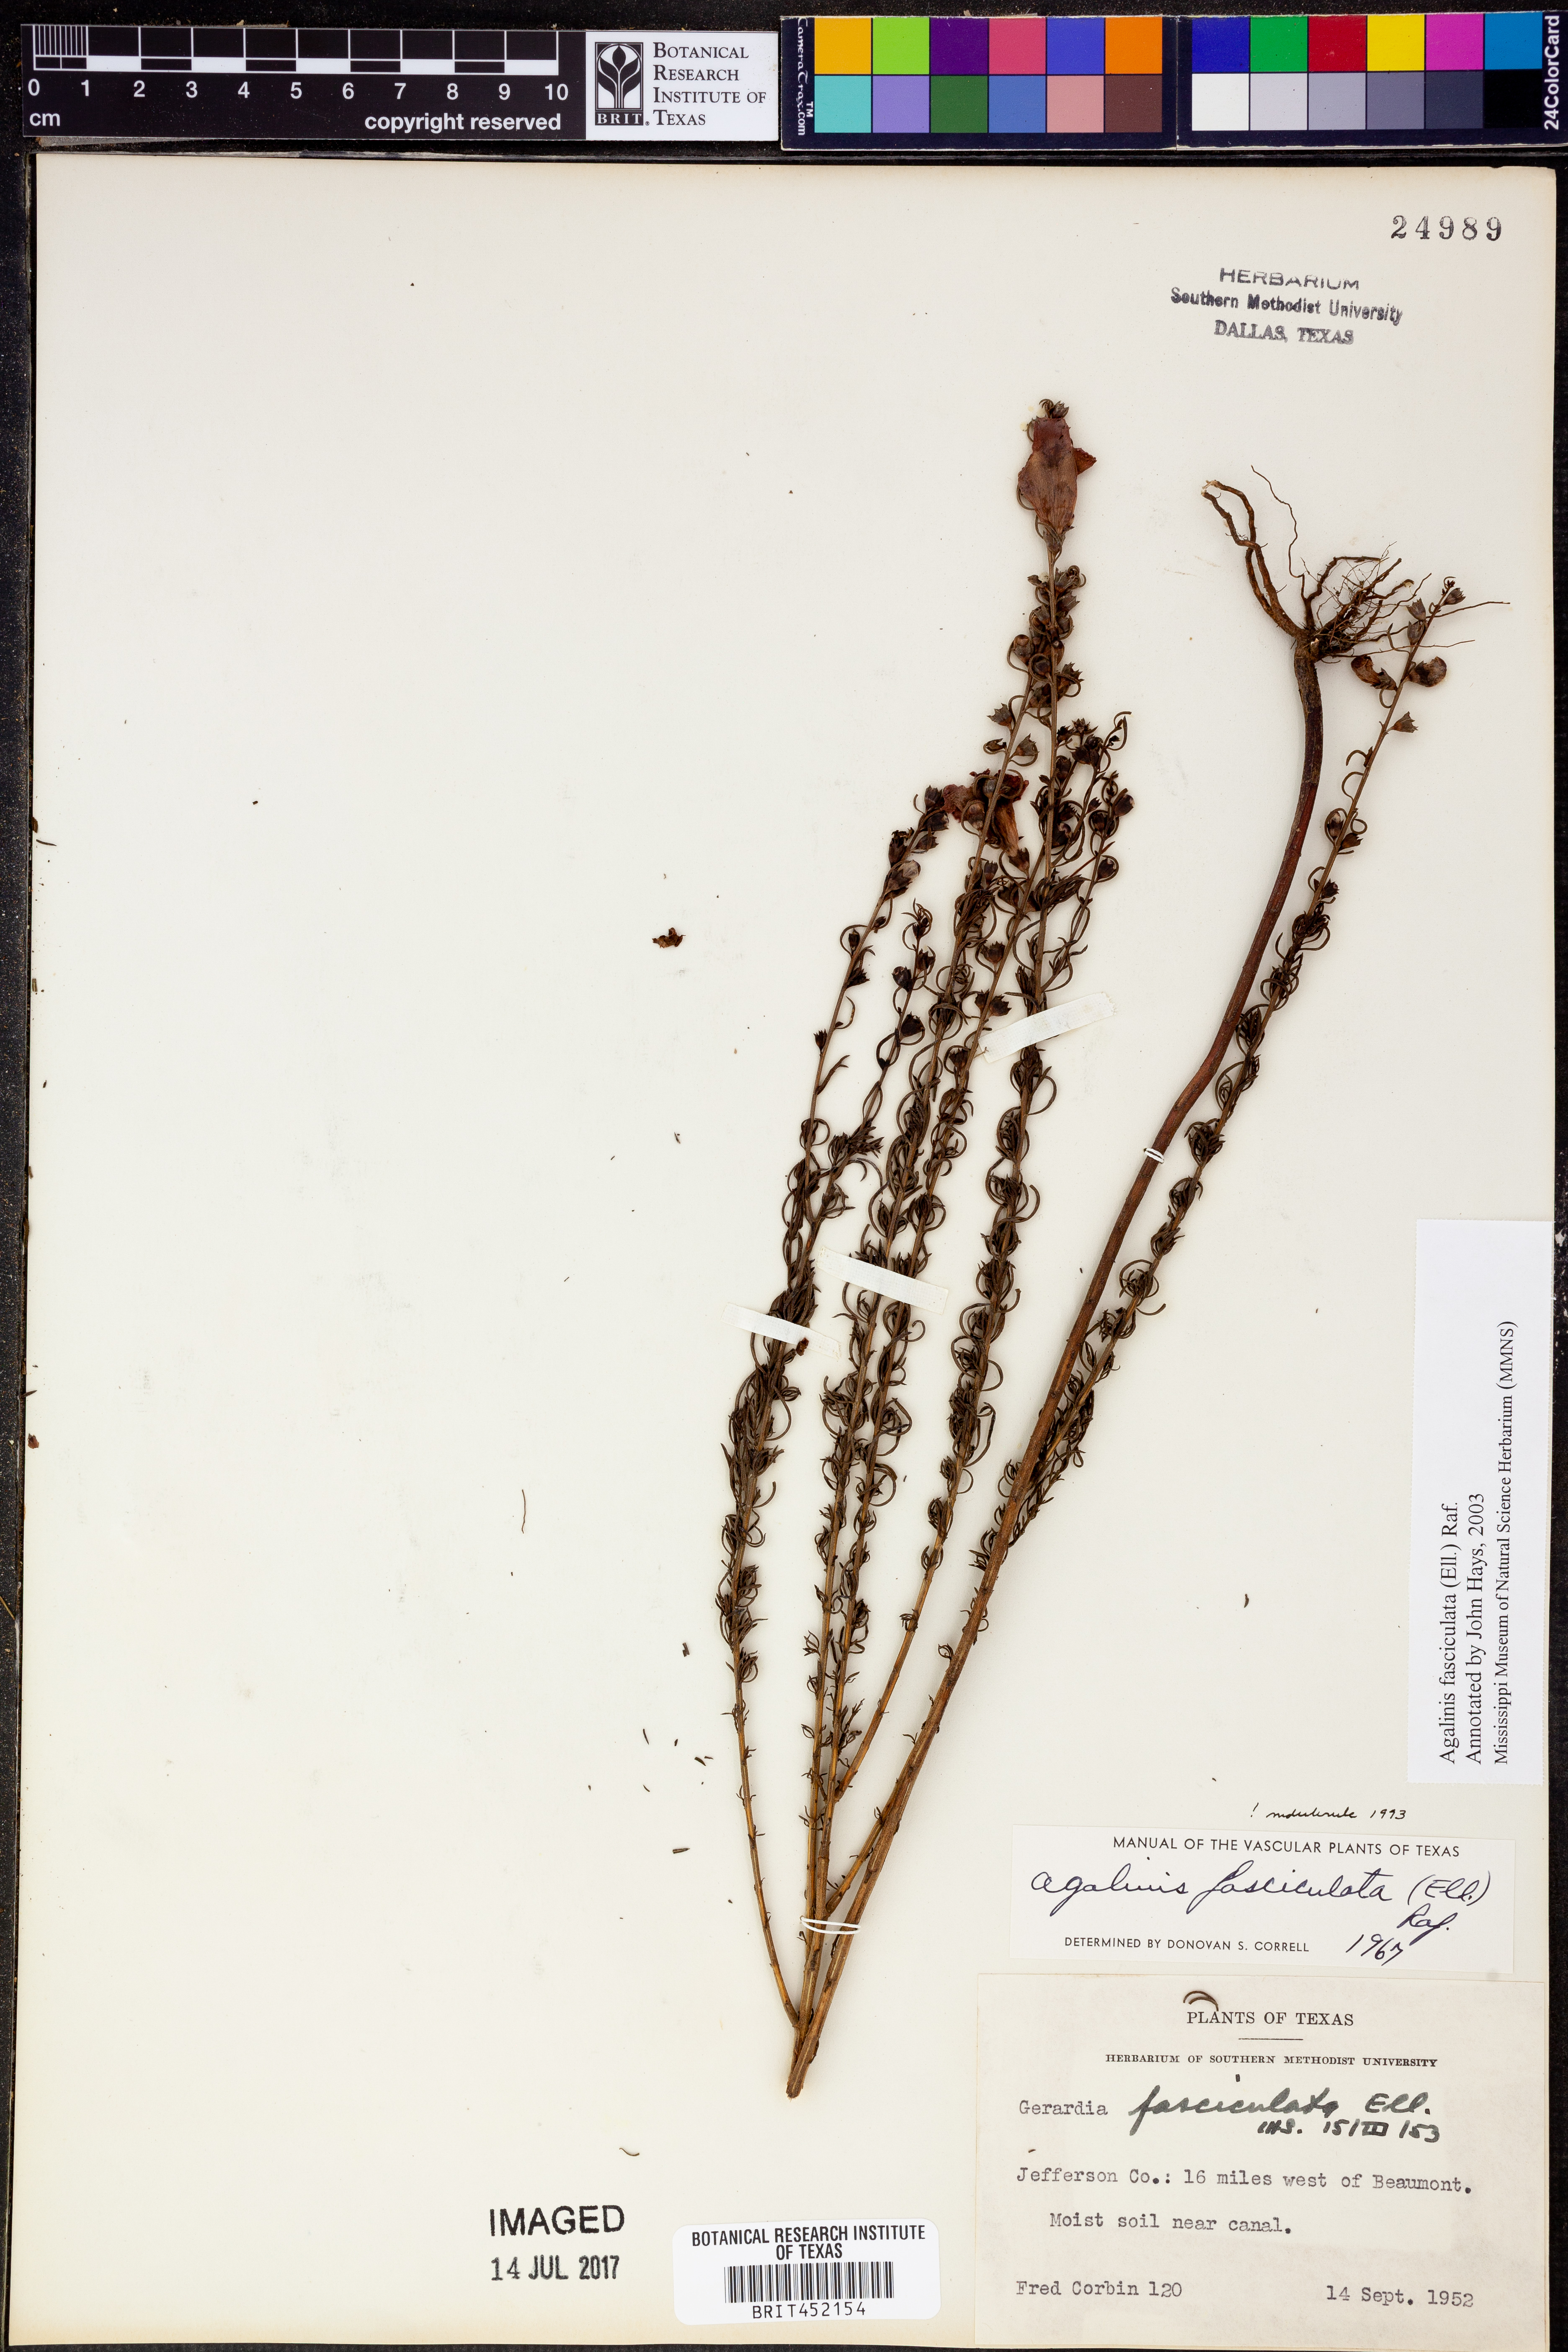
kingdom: Plantae
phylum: Tracheophyta
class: Magnoliopsida
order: Lamiales
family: Orobanchaceae
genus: Agalinis
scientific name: Agalinis fasciculata
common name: Beach false foxglove
